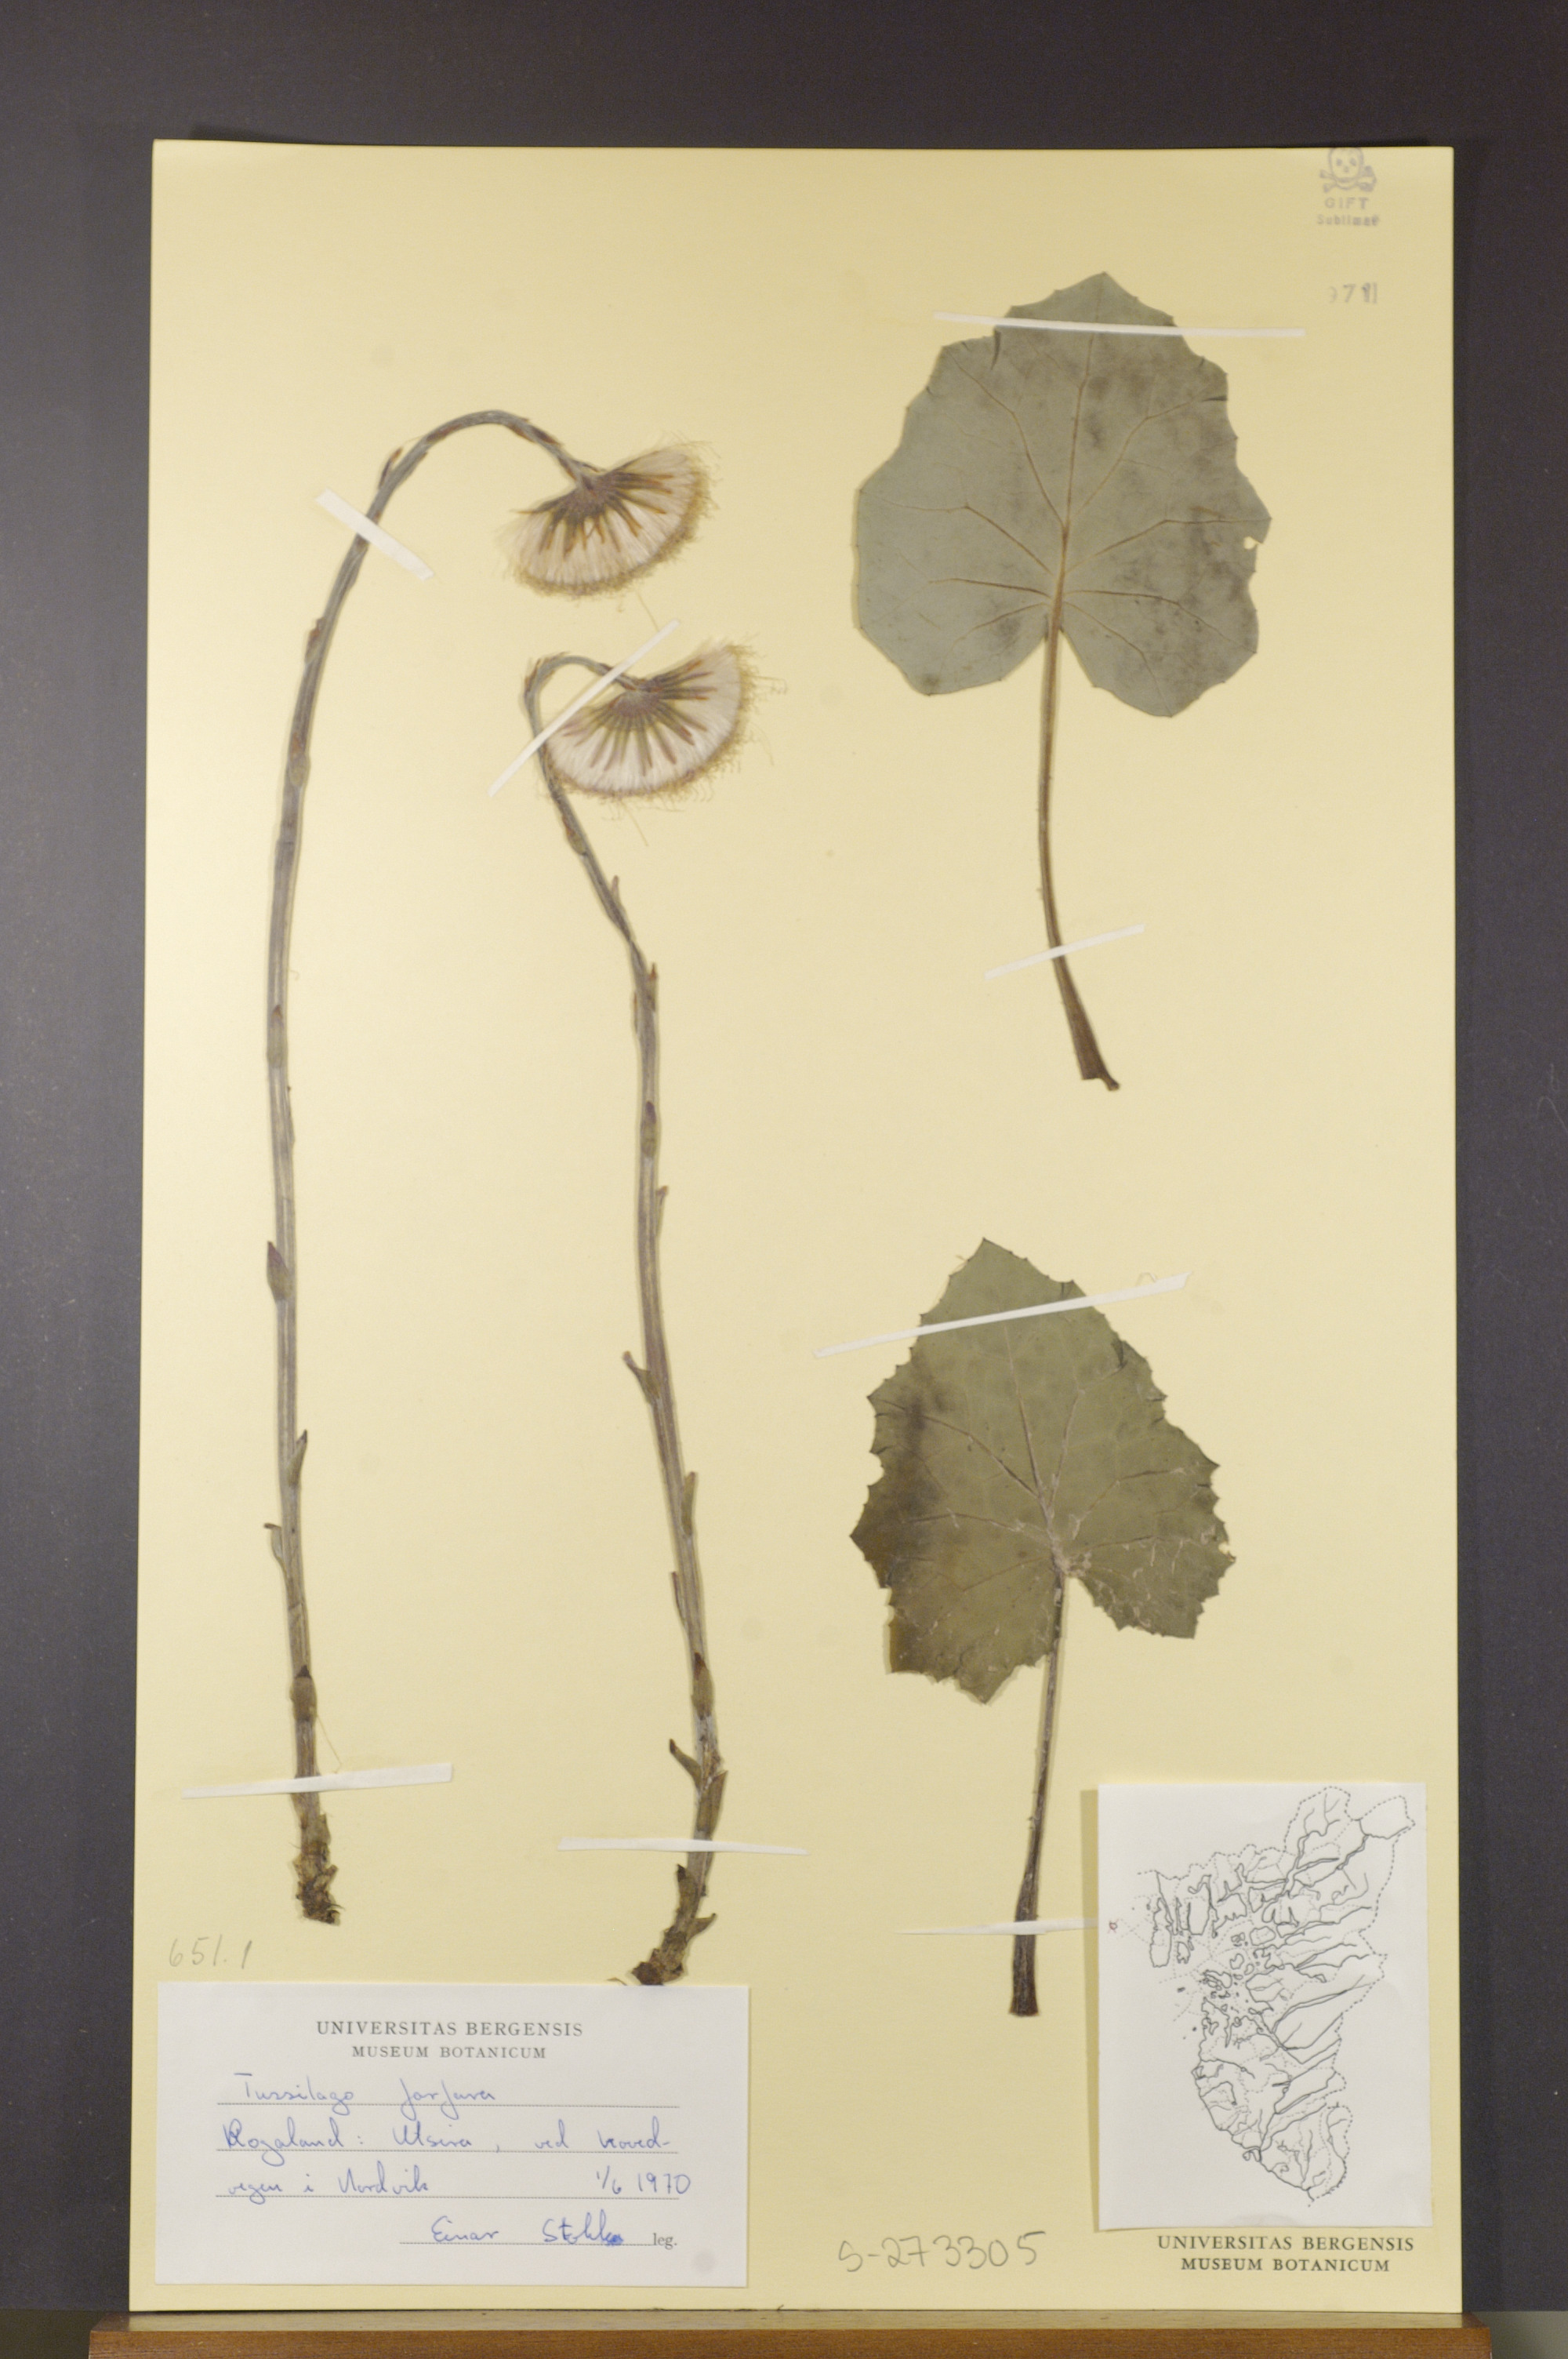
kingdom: Plantae
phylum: Tracheophyta
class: Magnoliopsida
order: Asterales
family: Asteraceae
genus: Tussilago
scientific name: Tussilago farfara
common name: Coltsfoot
